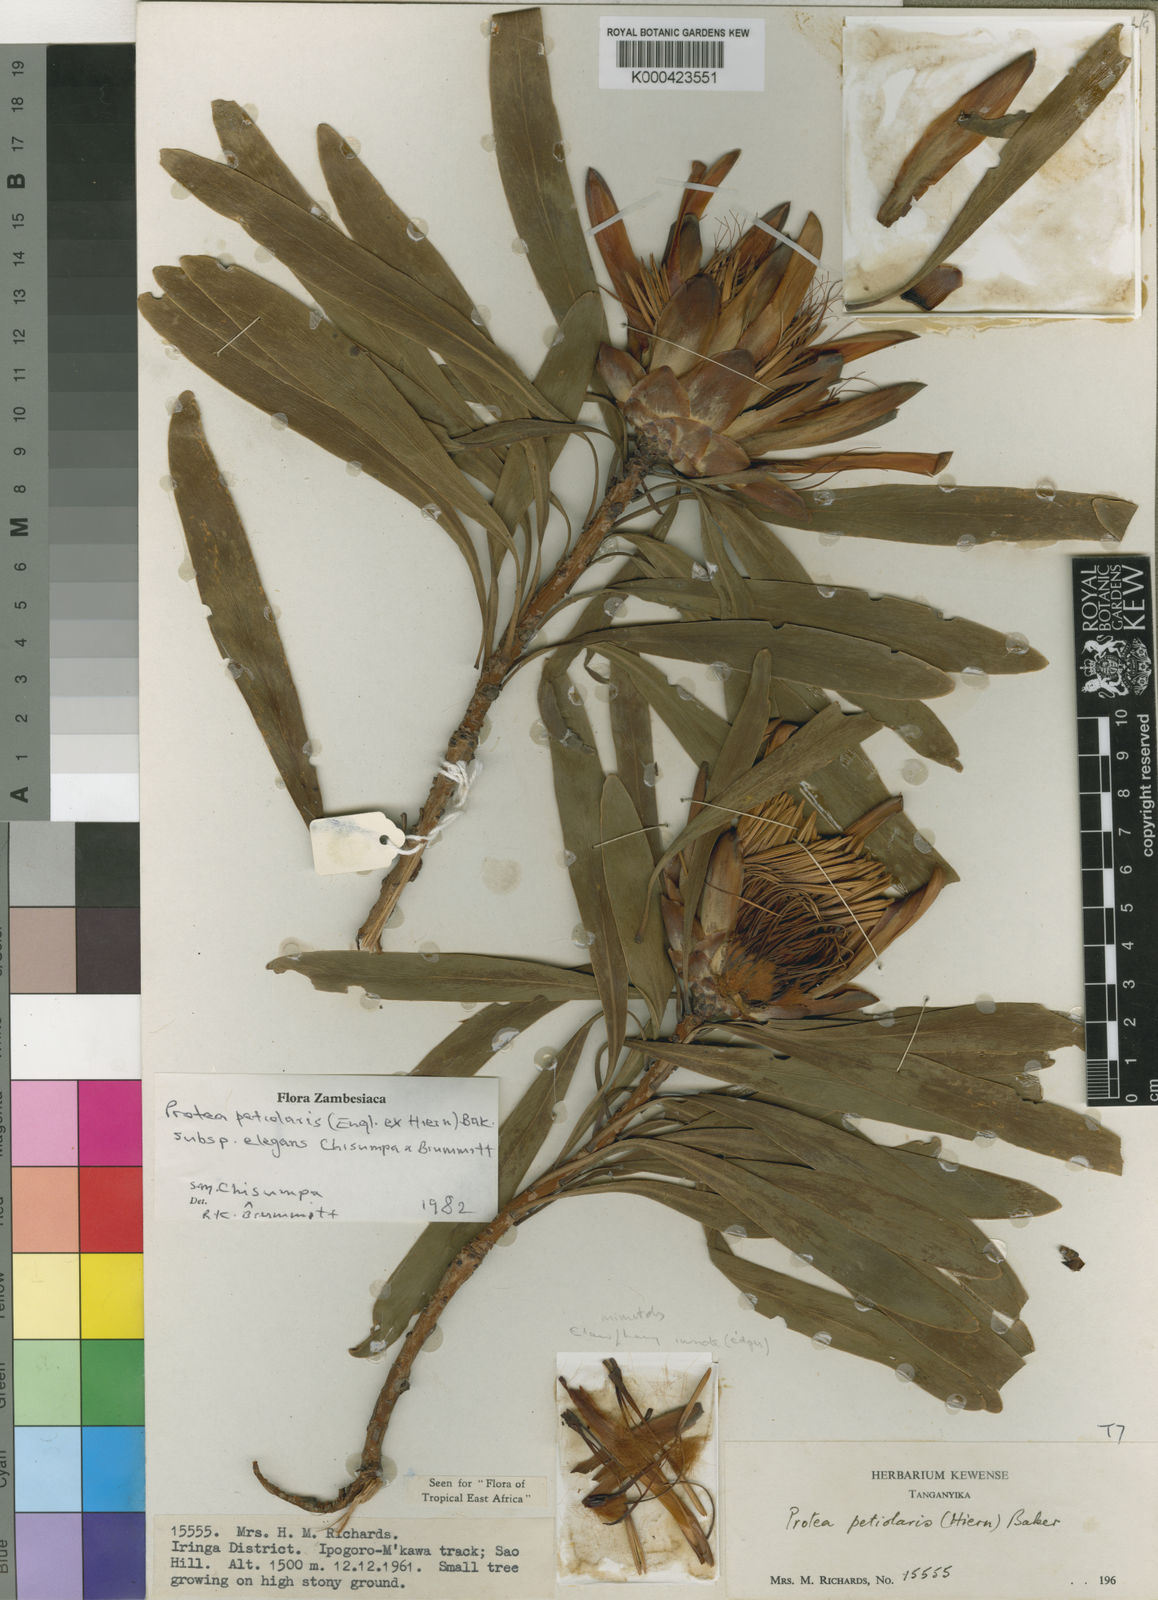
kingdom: Plantae
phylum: Tracheophyta
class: Magnoliopsida
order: Proteales
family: Proteaceae
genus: Protea
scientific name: Protea petiolaris
